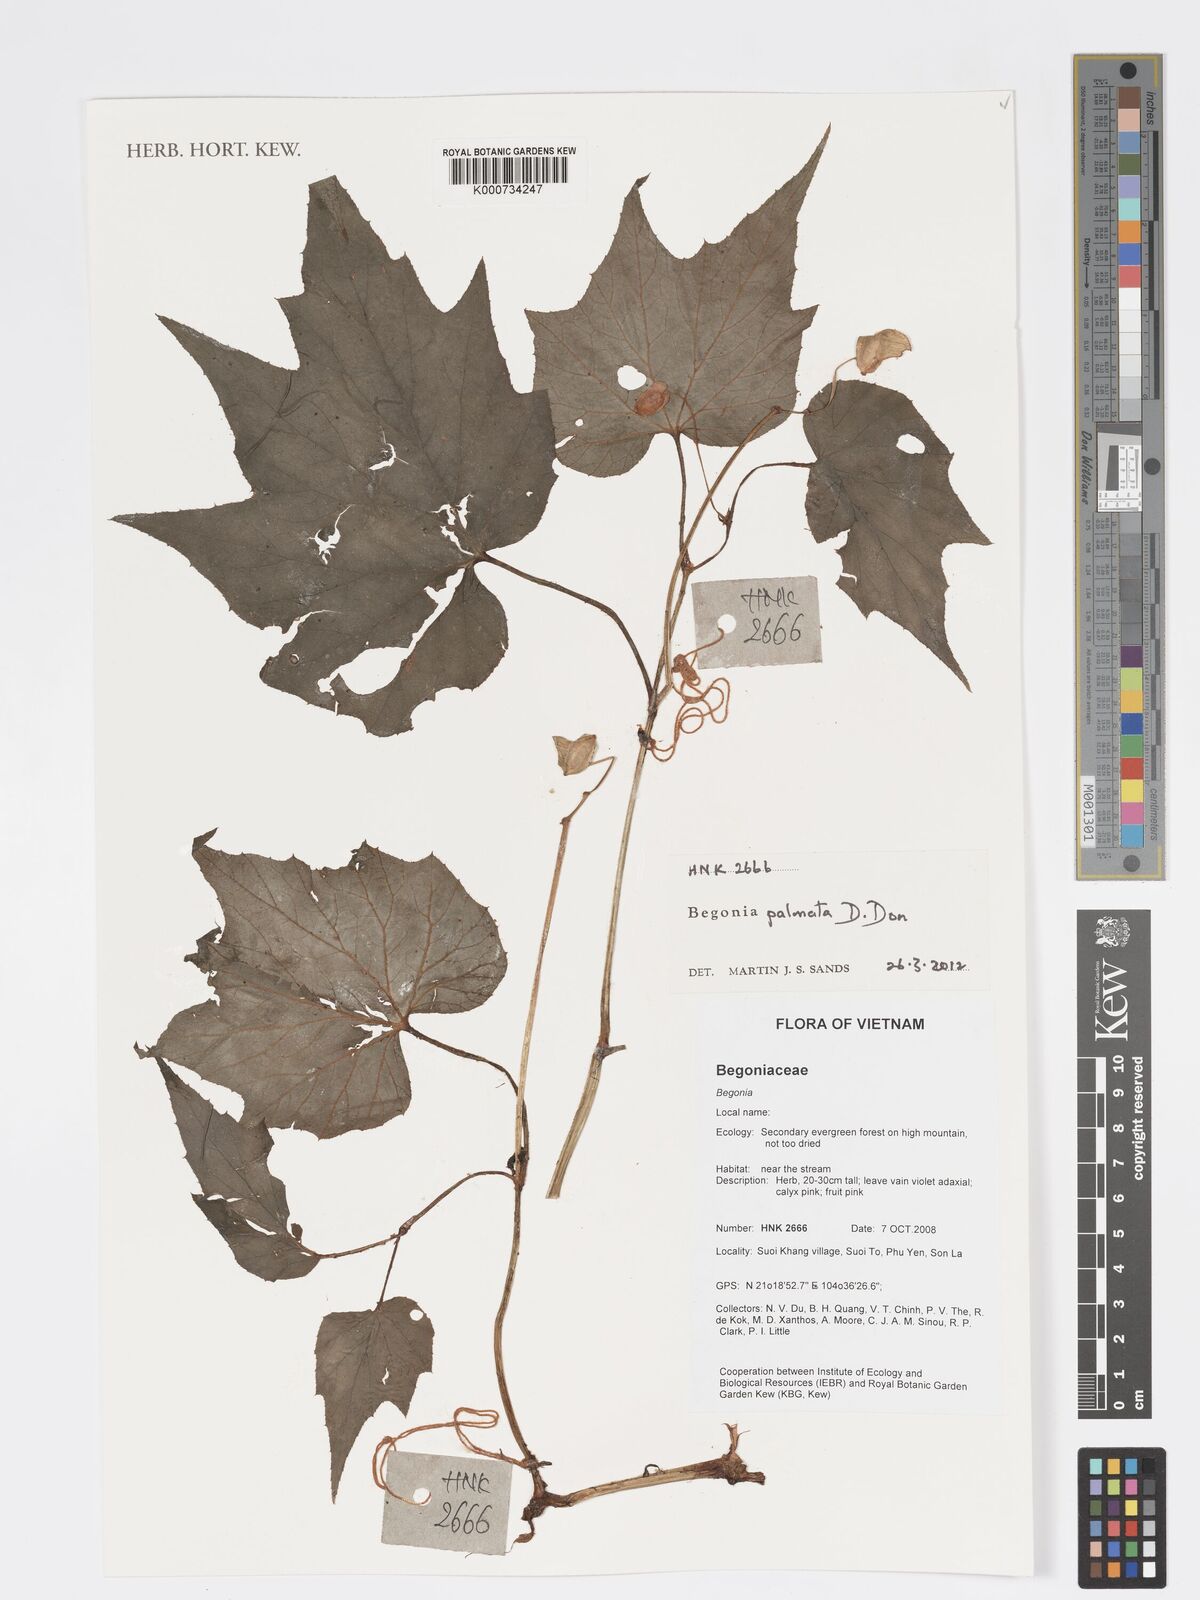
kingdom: Plantae
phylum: Tracheophyta
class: Magnoliopsida
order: Cucurbitales
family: Begoniaceae
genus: Begonia
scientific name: Begonia palmata
